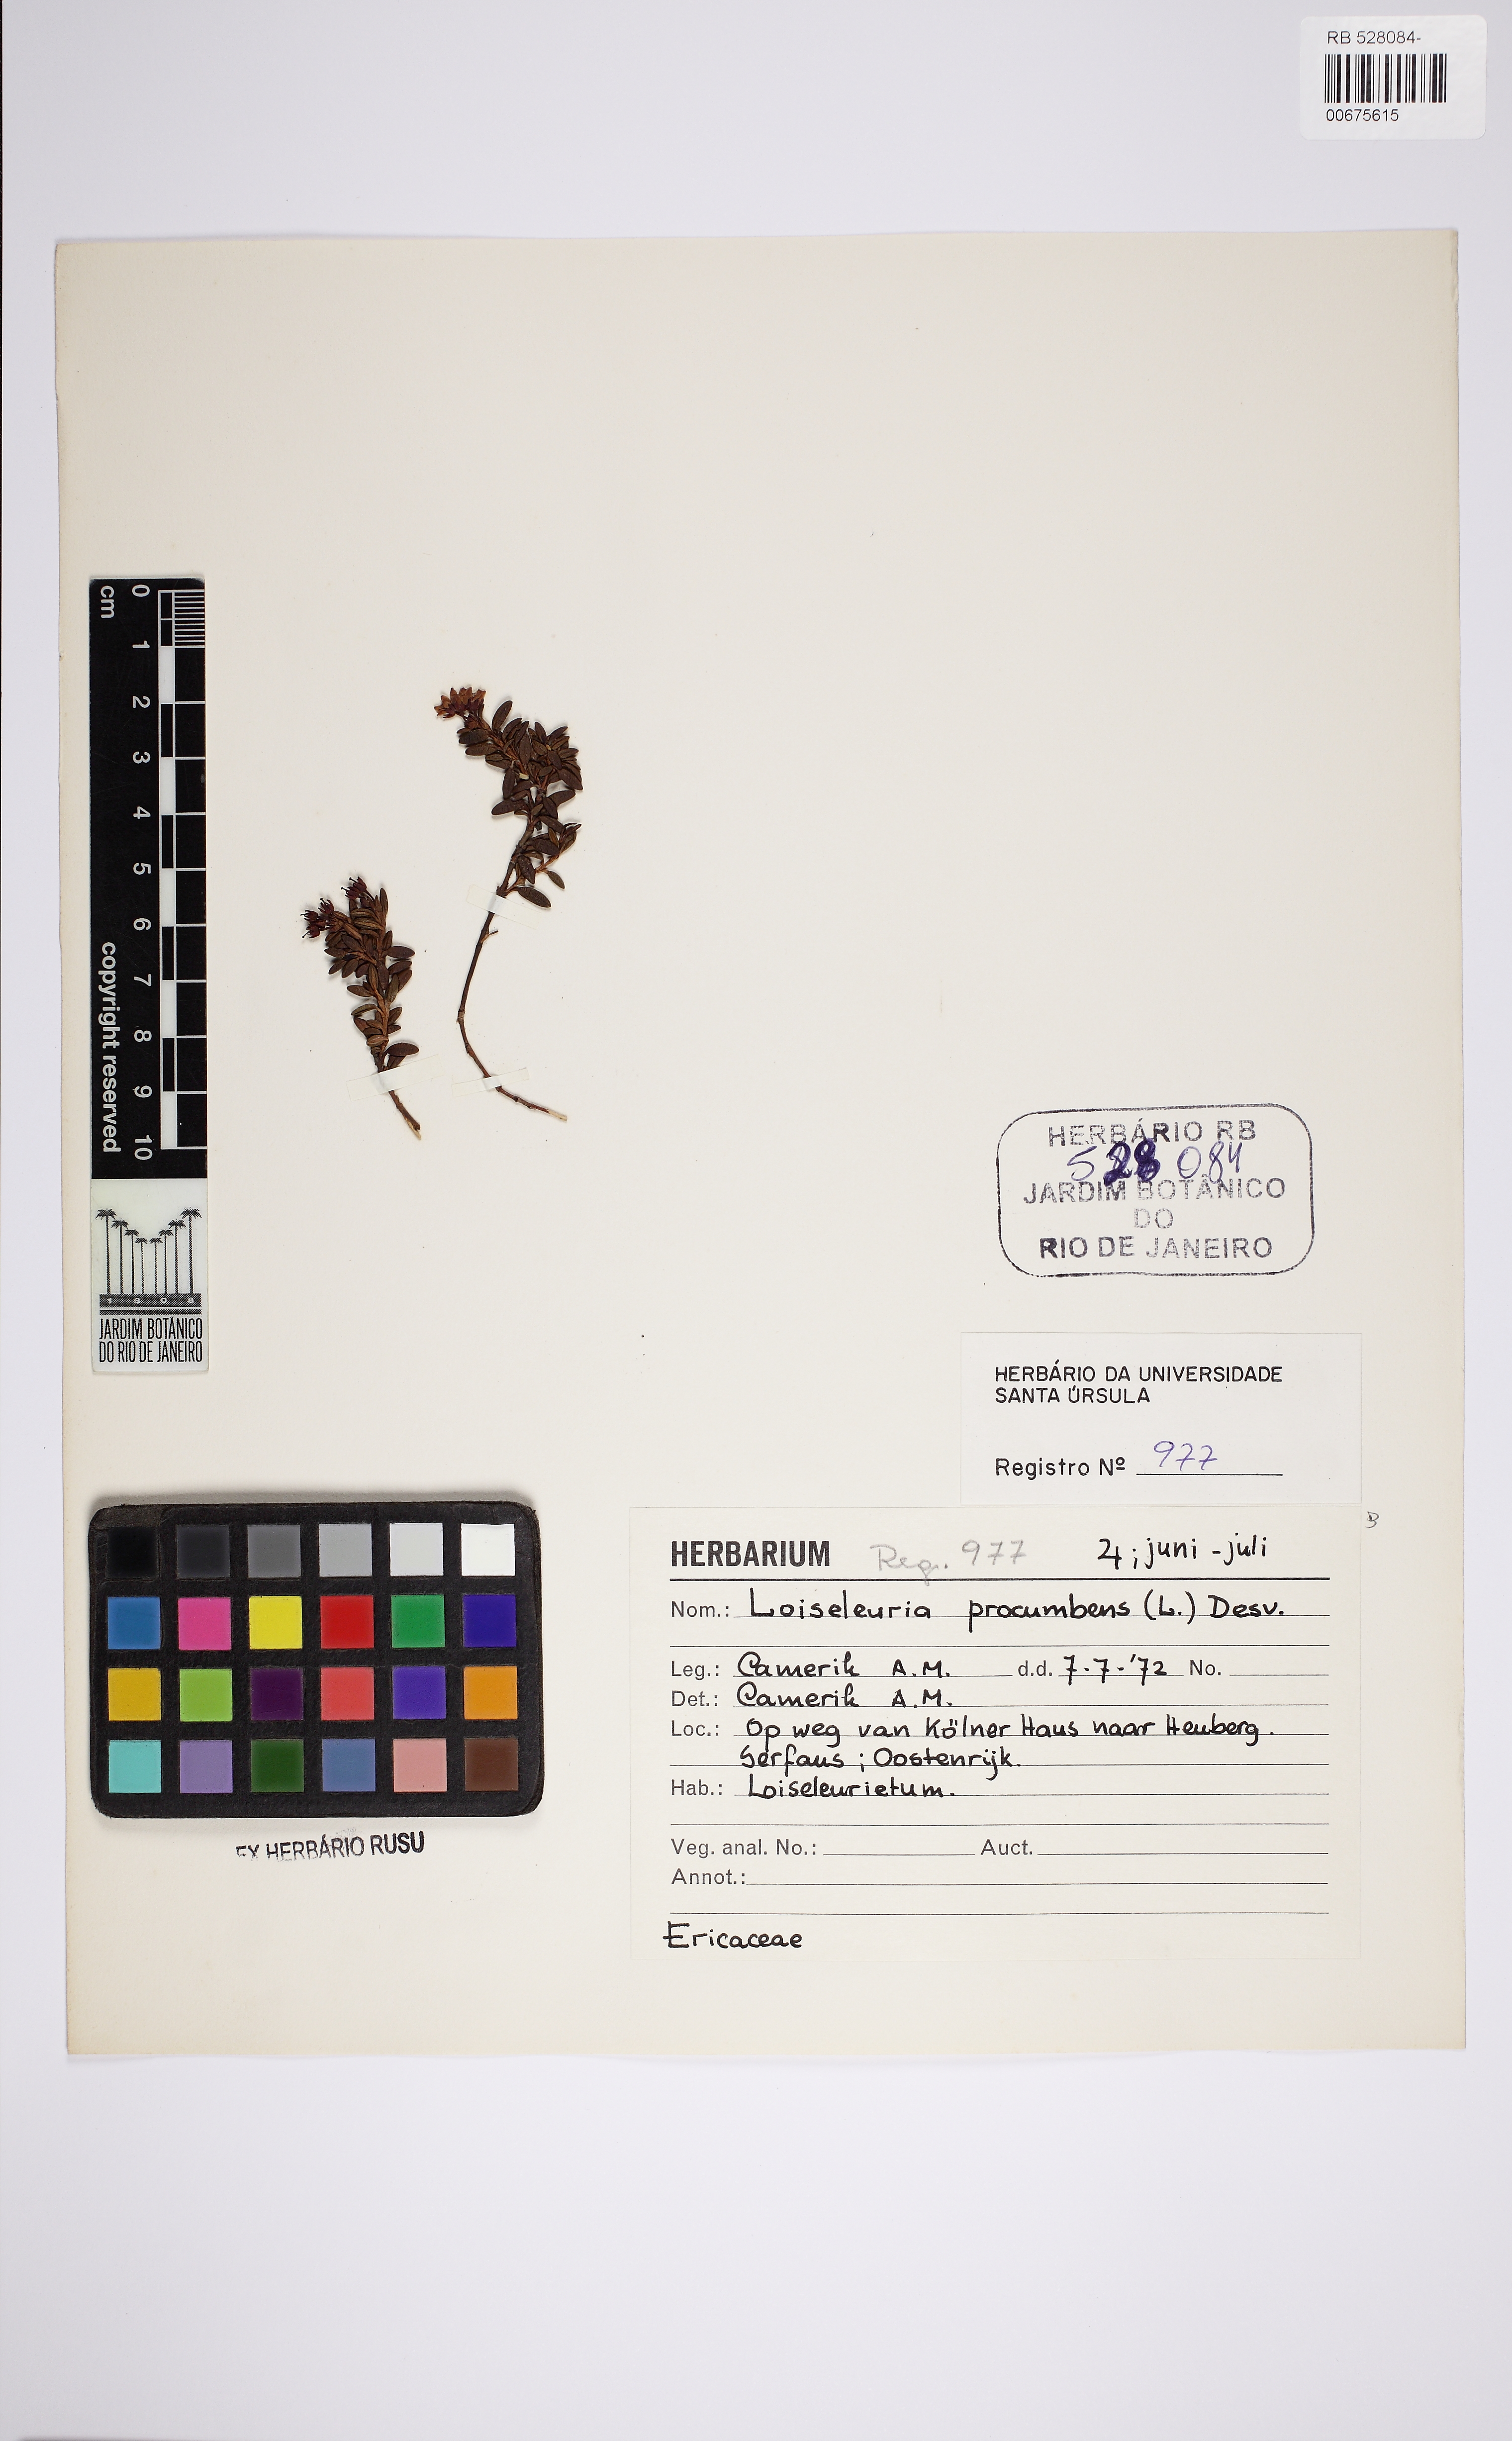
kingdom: Plantae
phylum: Tracheophyta
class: Magnoliopsida
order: Ericales
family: Ericaceae
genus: Kalmia
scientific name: Kalmia procumbens
